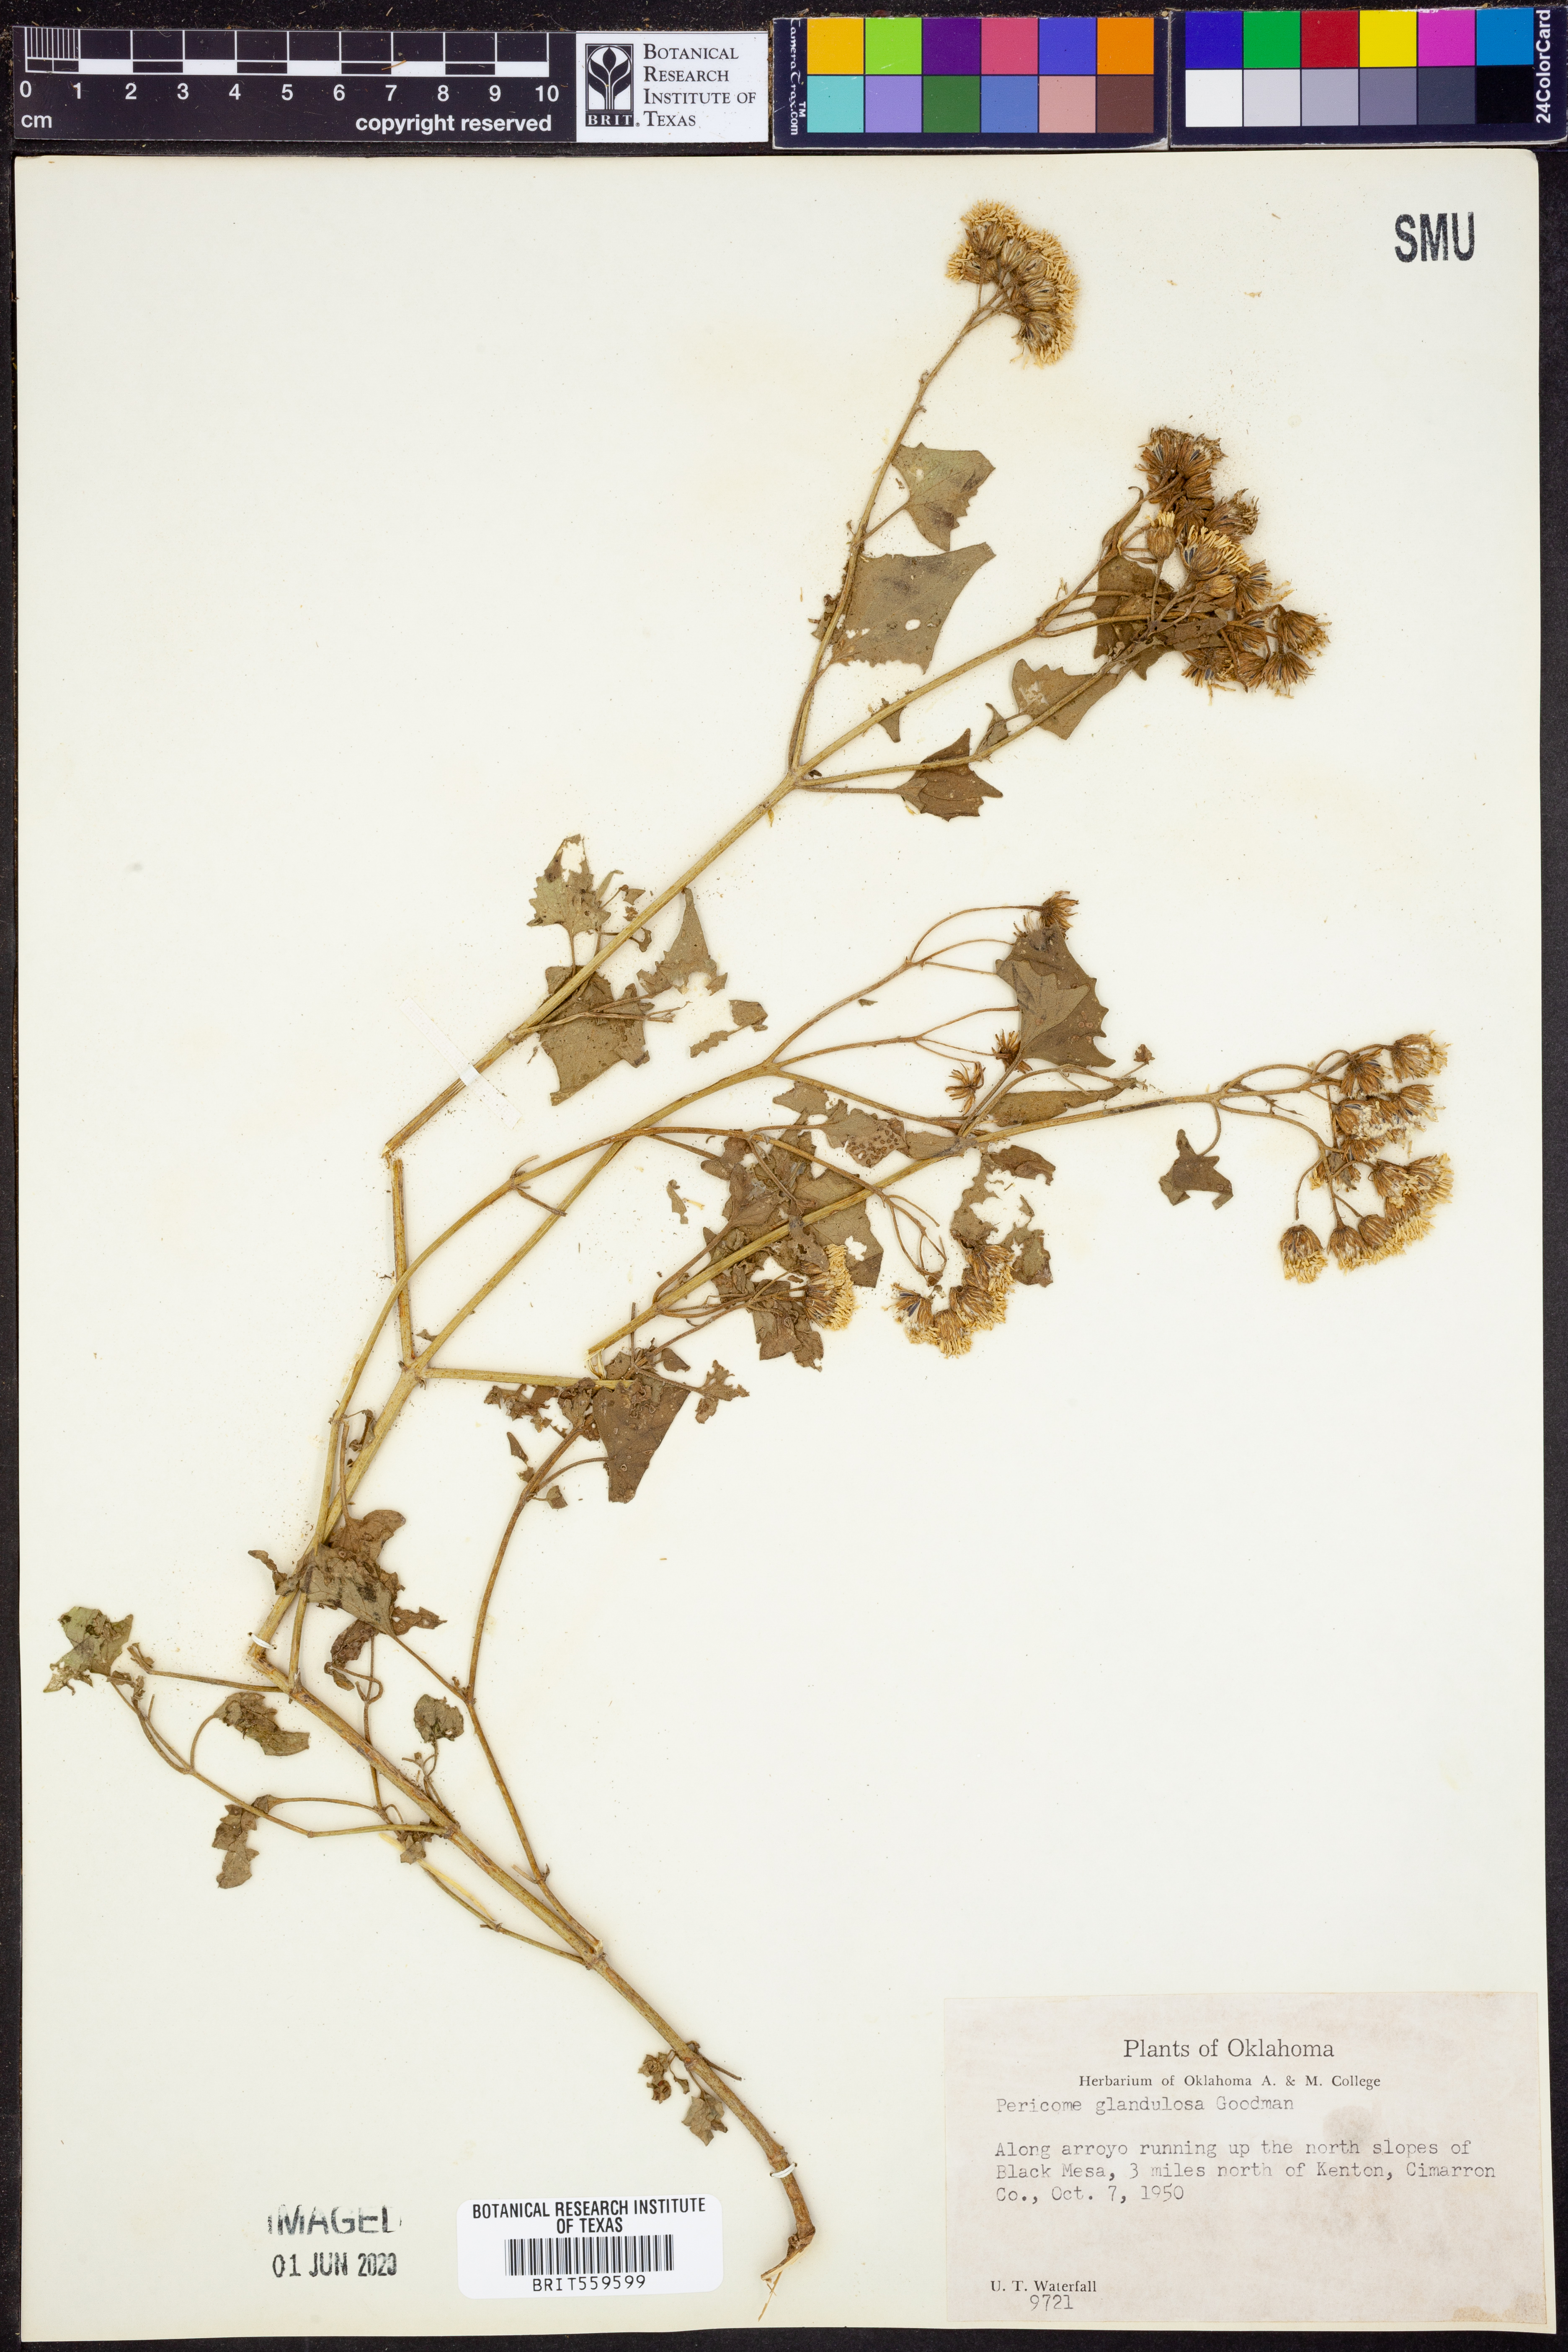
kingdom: Plantae
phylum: Tracheophyta
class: Magnoliopsida
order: Asterales
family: Asteraceae
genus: Pericome
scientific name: Pericome caudata
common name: Taperleaf
